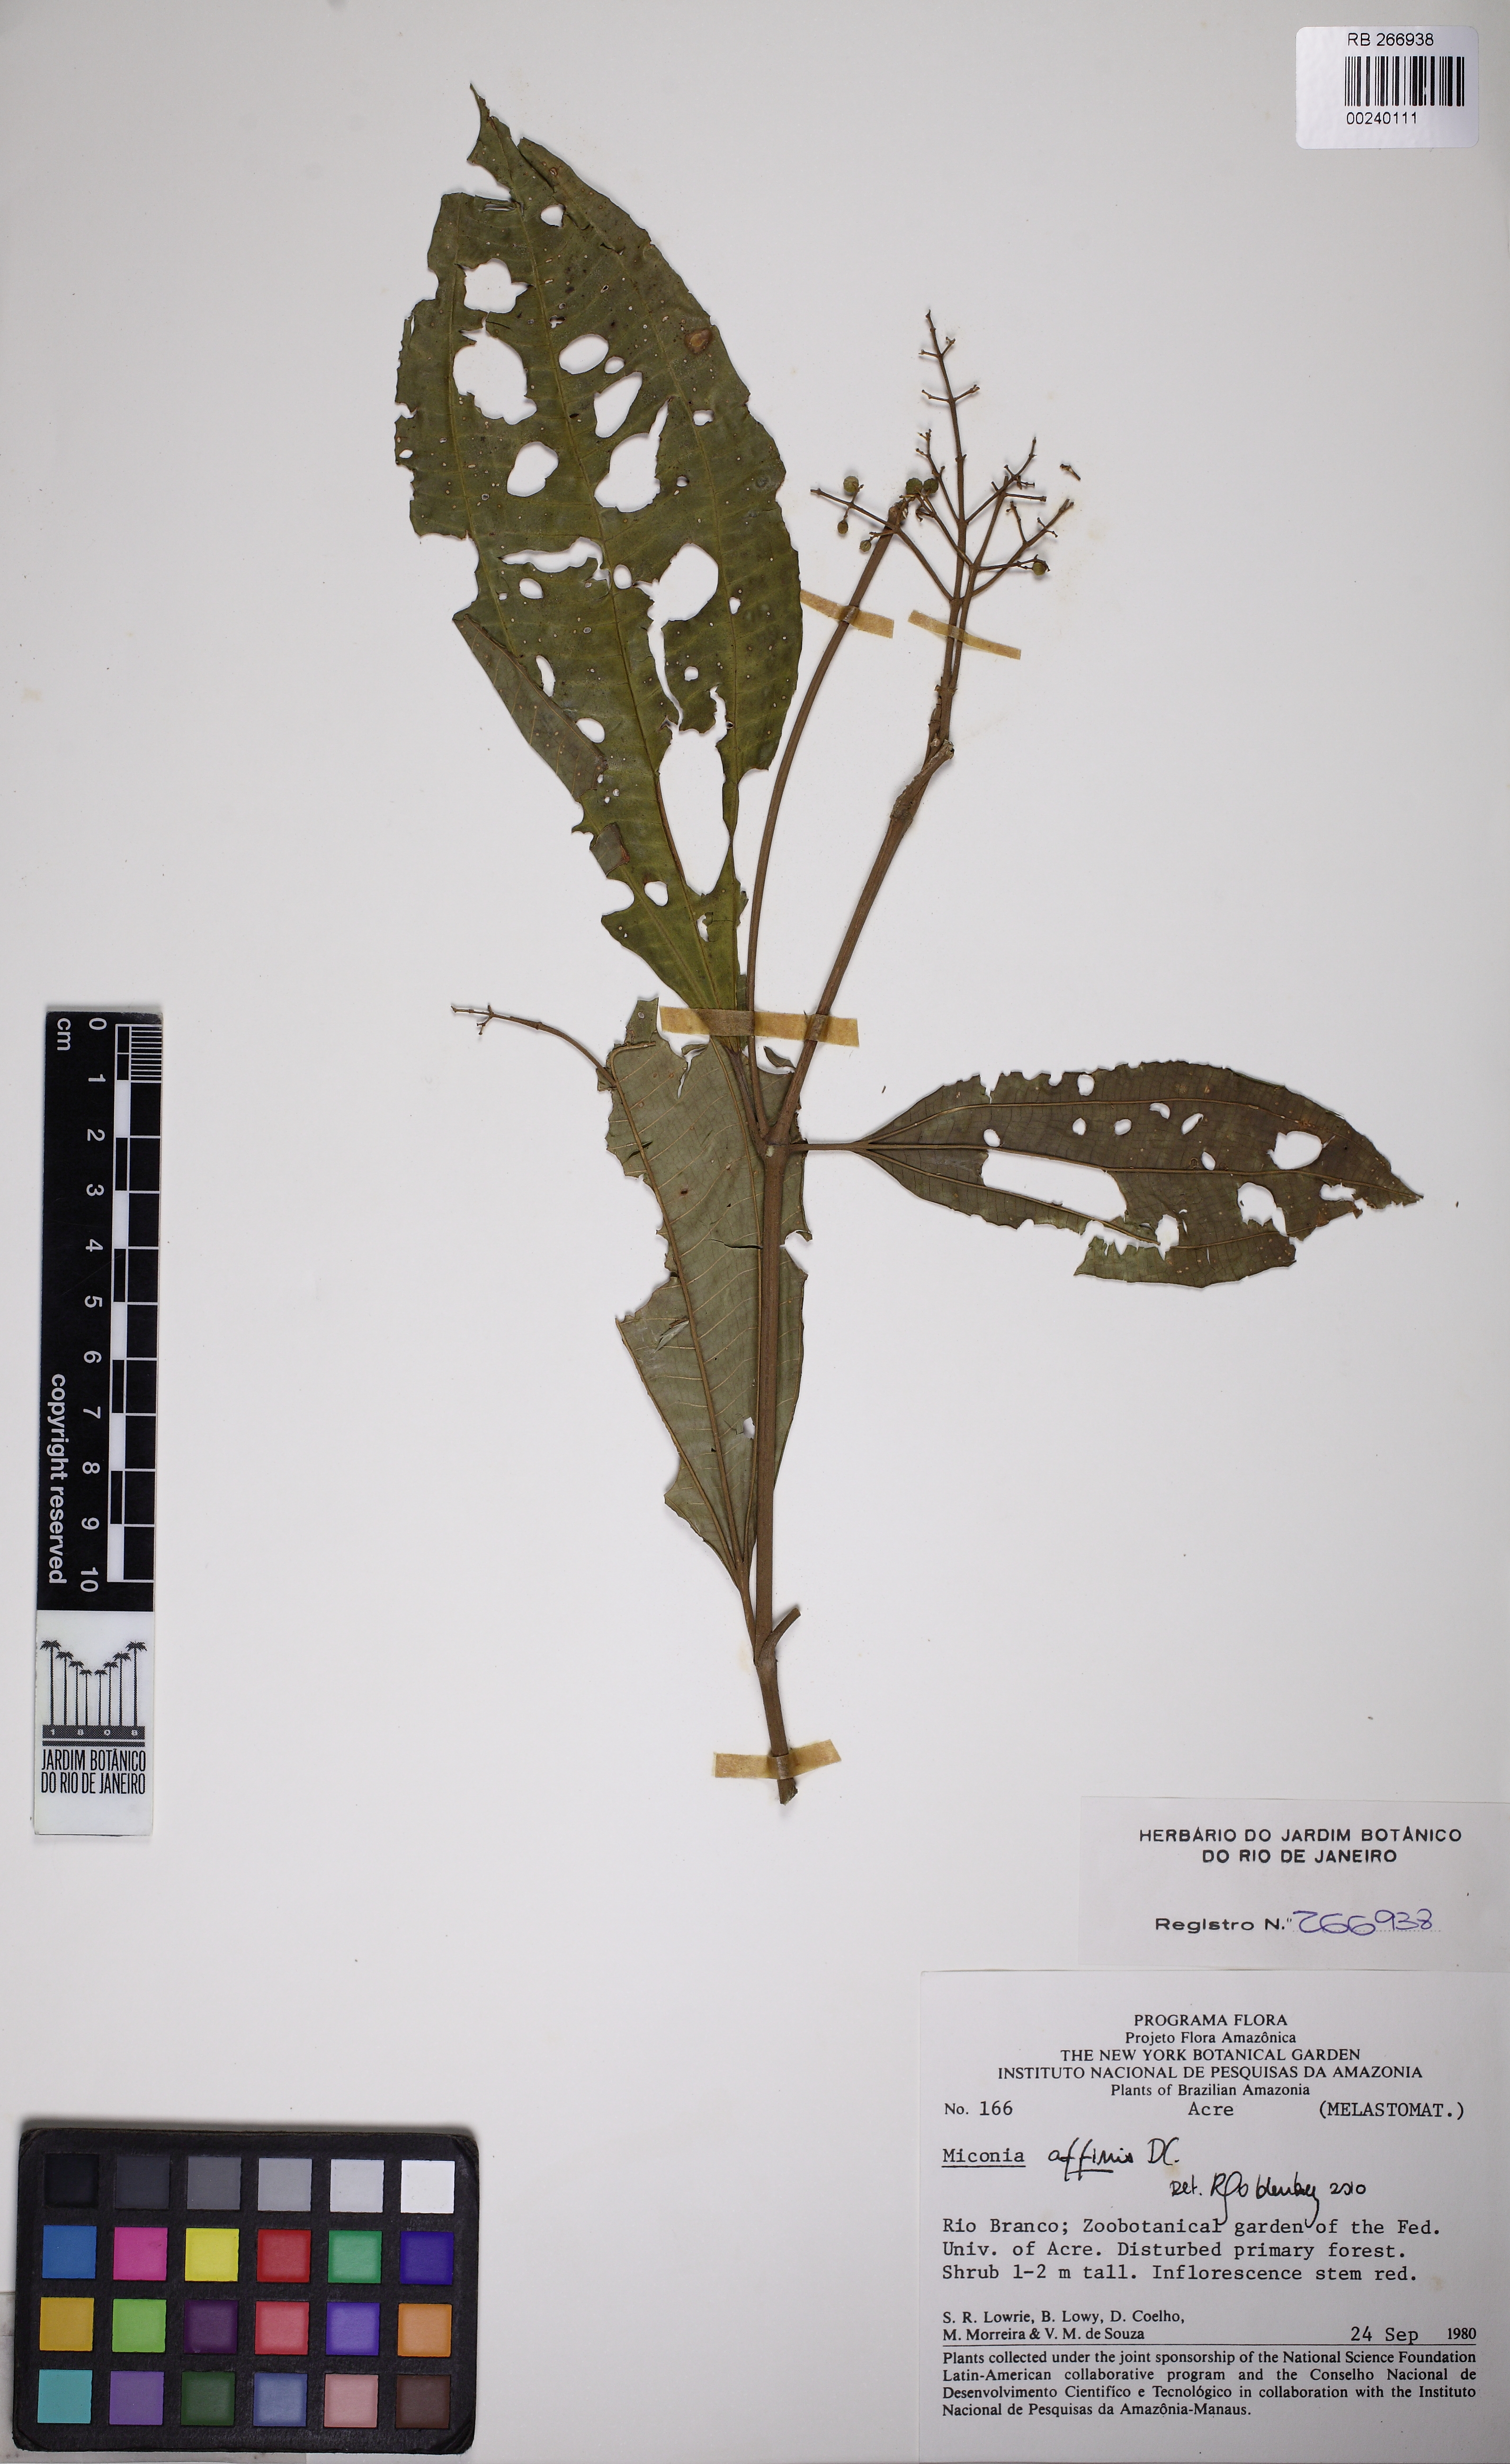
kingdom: Plantae
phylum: Tracheophyta
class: Magnoliopsida
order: Myrtales
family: Melastomataceae
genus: Miconia
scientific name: Miconia affinis
